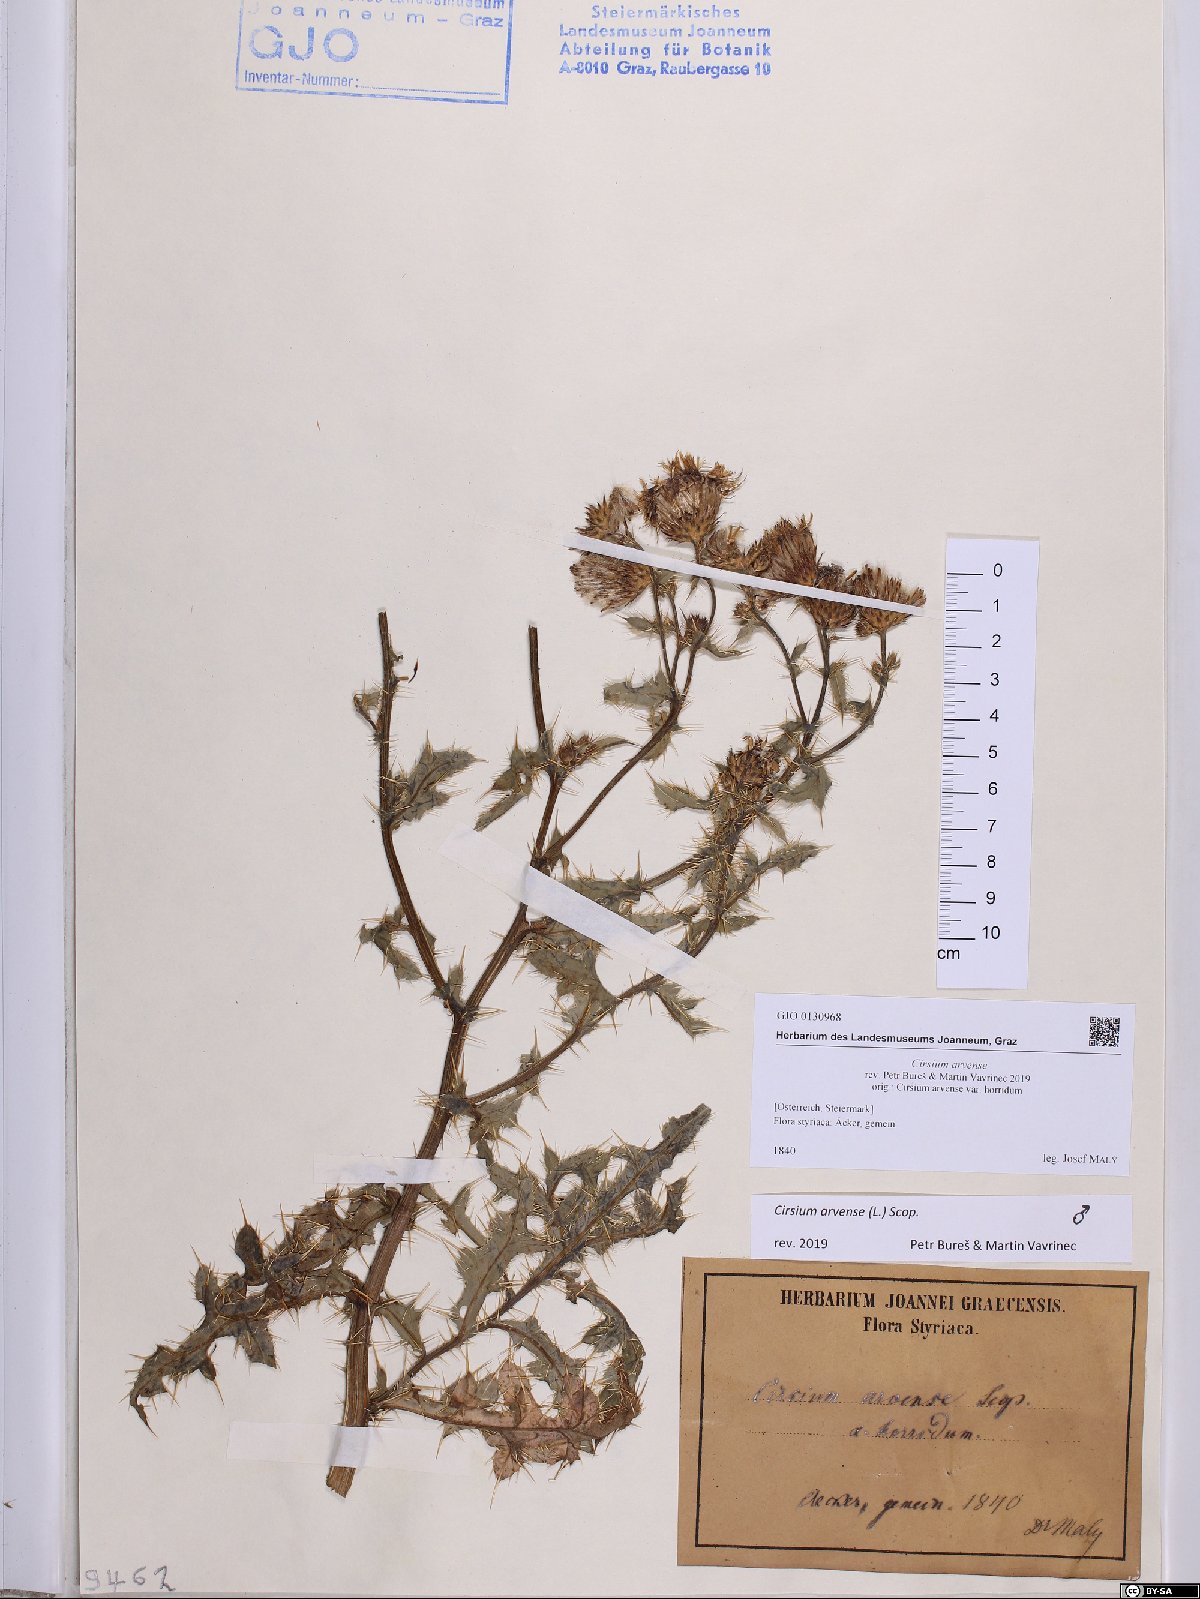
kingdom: Plantae
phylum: Tracheophyta
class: Magnoliopsida
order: Asterales
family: Asteraceae
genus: Cirsium
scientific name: Cirsium arvense
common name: Creeping thistle
